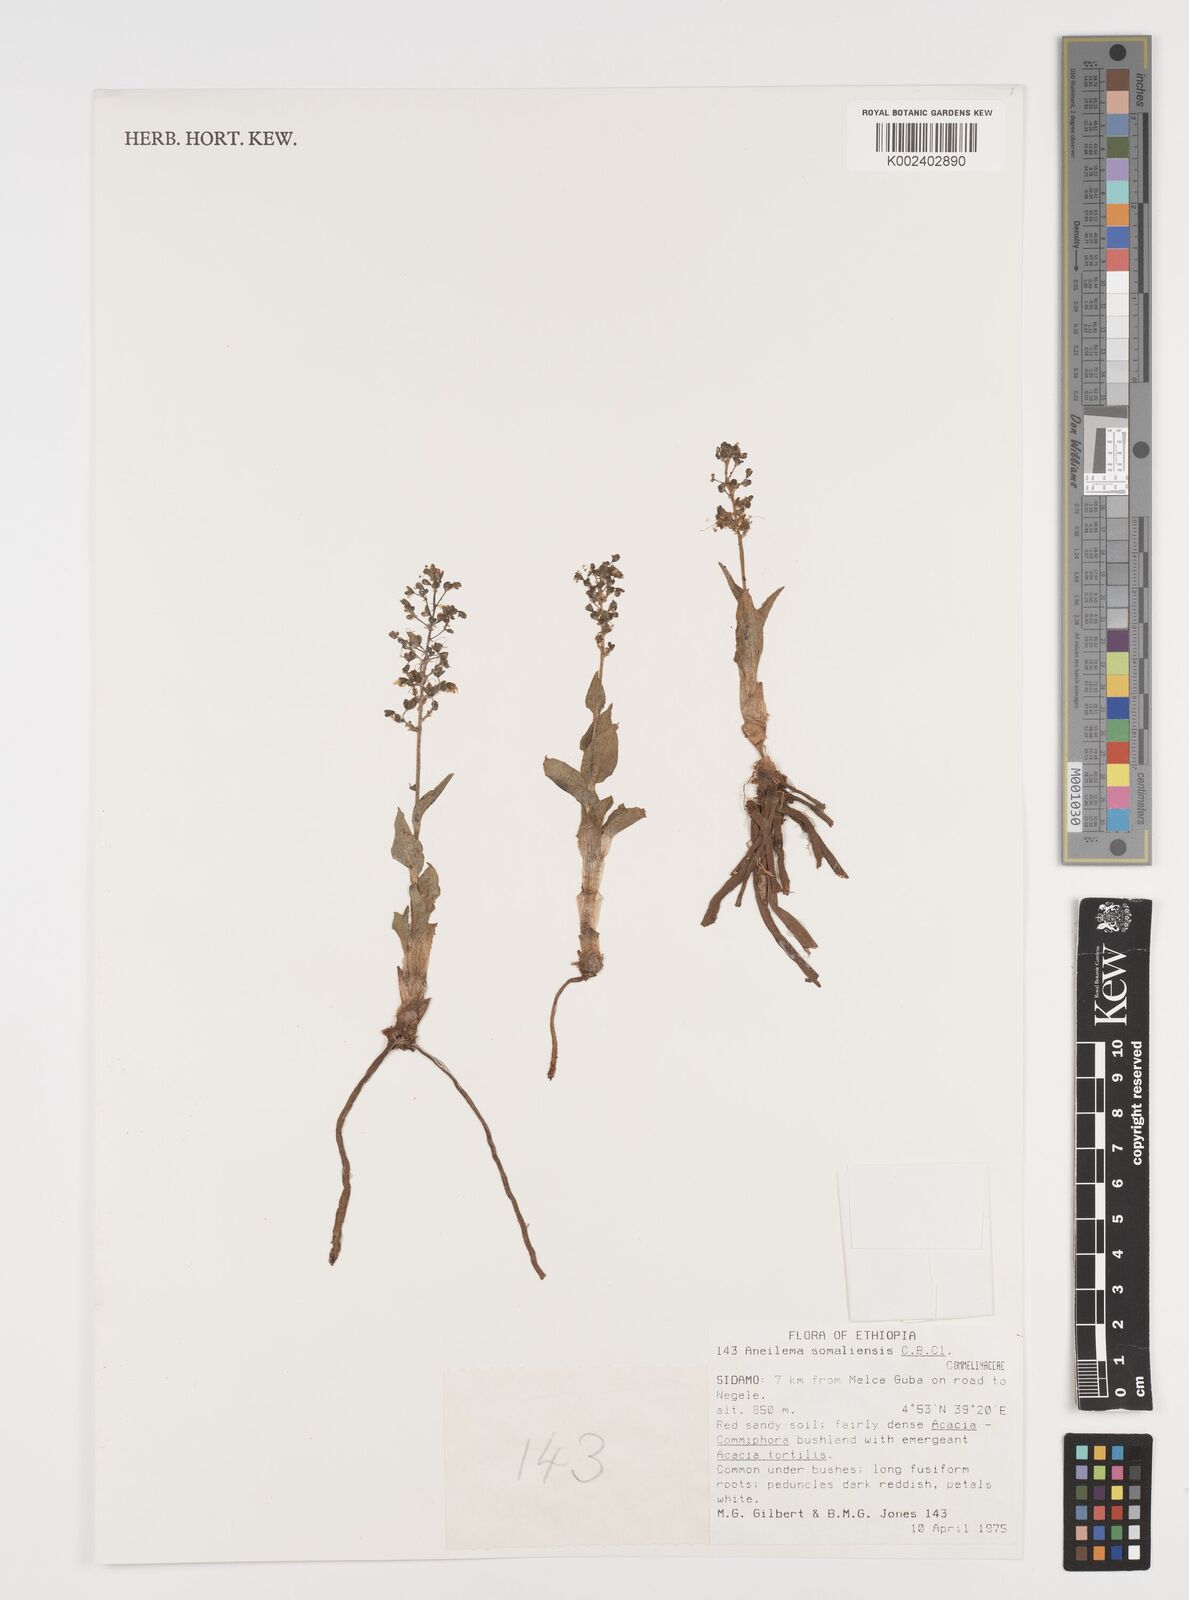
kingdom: Plantae
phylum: Tracheophyta
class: Liliopsida
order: Commelinales
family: Commelinaceae
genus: Aneilema
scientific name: Aneilema somaliense
